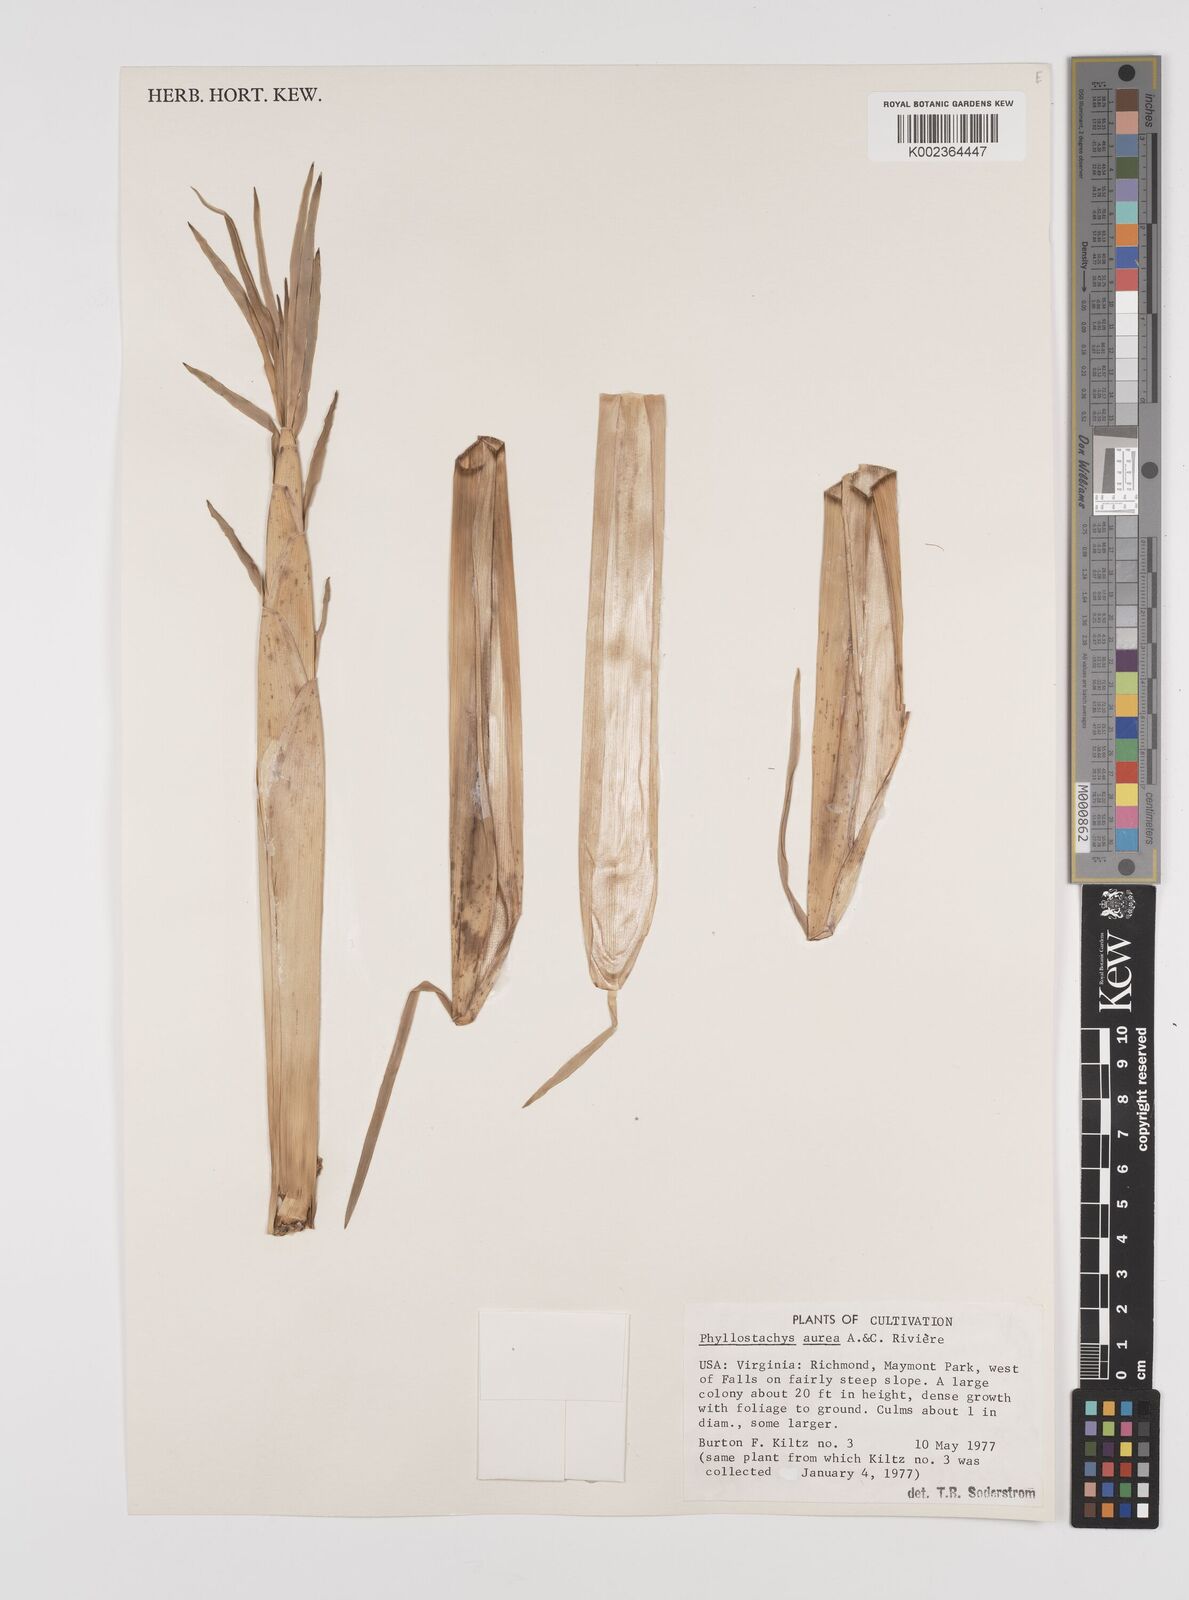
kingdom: Plantae
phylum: Tracheophyta
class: Liliopsida
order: Poales
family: Poaceae
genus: Phyllostachys
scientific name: Phyllostachys aurea
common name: Golden bamboo
